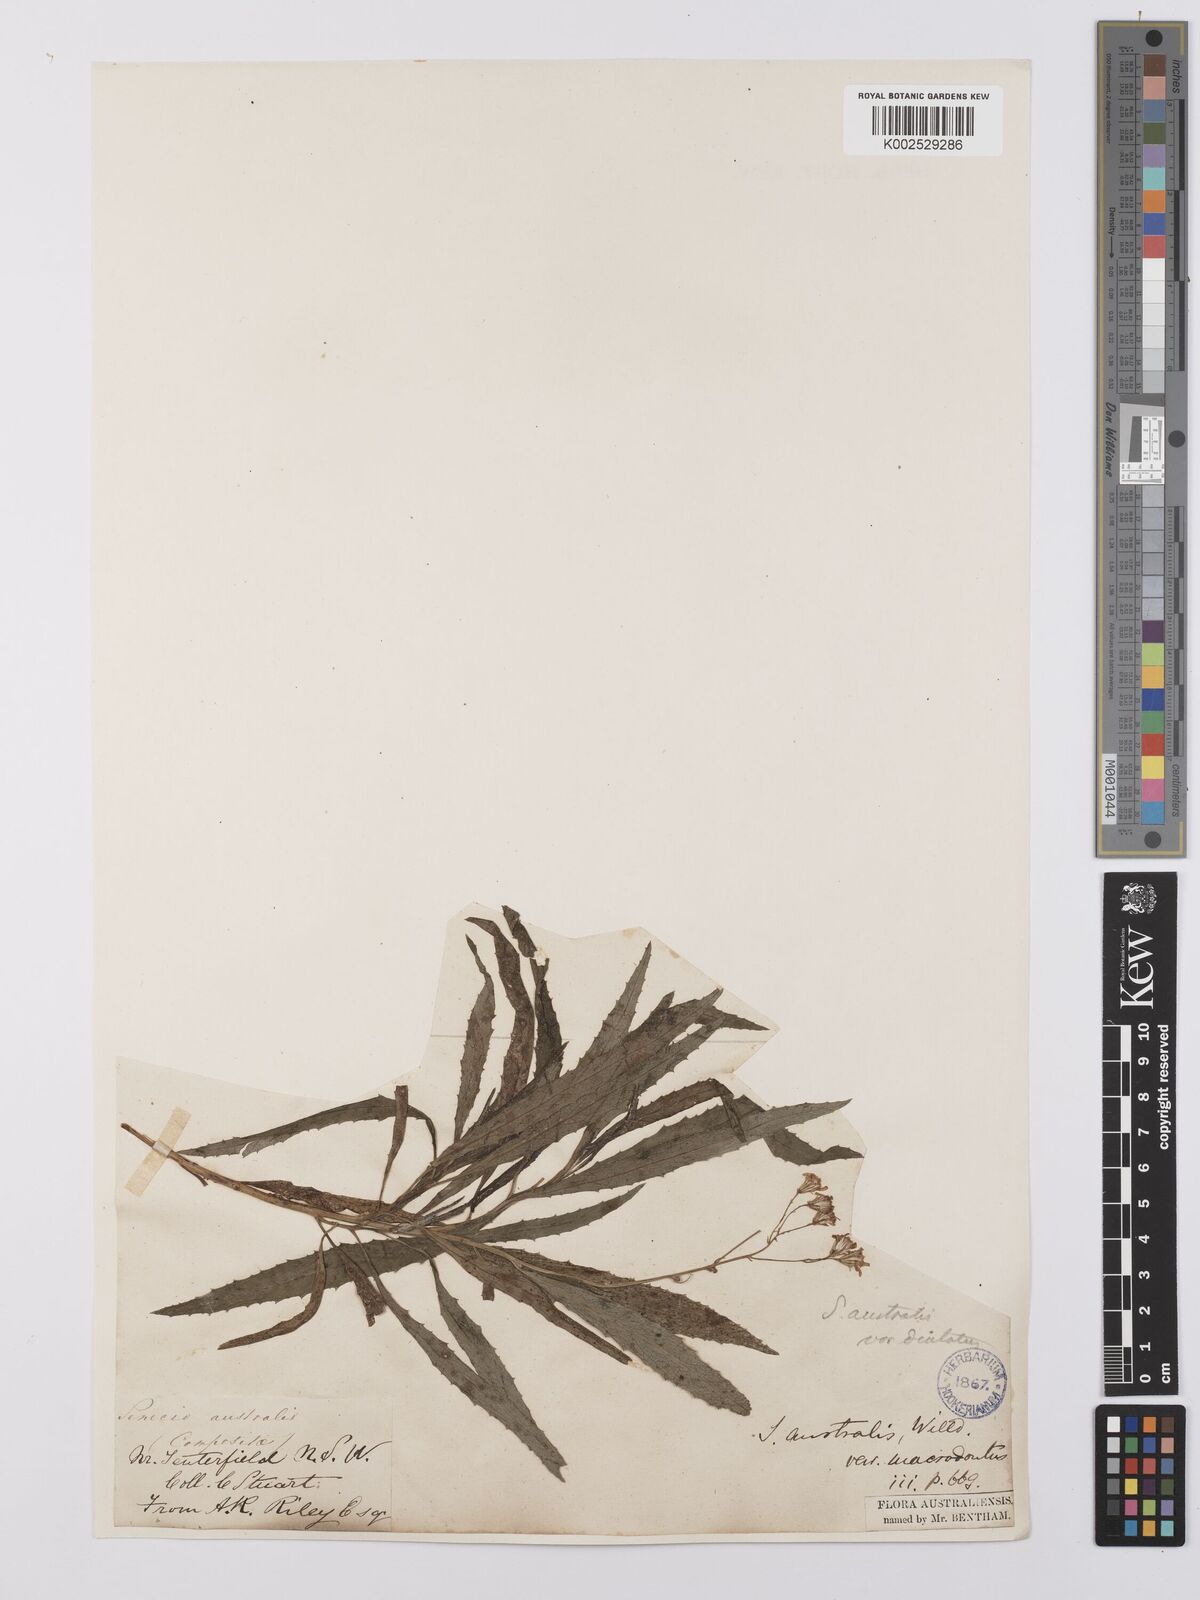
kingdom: Plantae
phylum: Tracheophyta
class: Magnoliopsida
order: Asterales
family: Asteraceae
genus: Senecio
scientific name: Senecio
